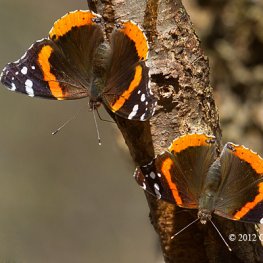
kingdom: Animalia
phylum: Arthropoda
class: Insecta
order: Lepidoptera
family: Nymphalidae
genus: Vanessa
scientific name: Vanessa atalanta
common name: Red Admiral
